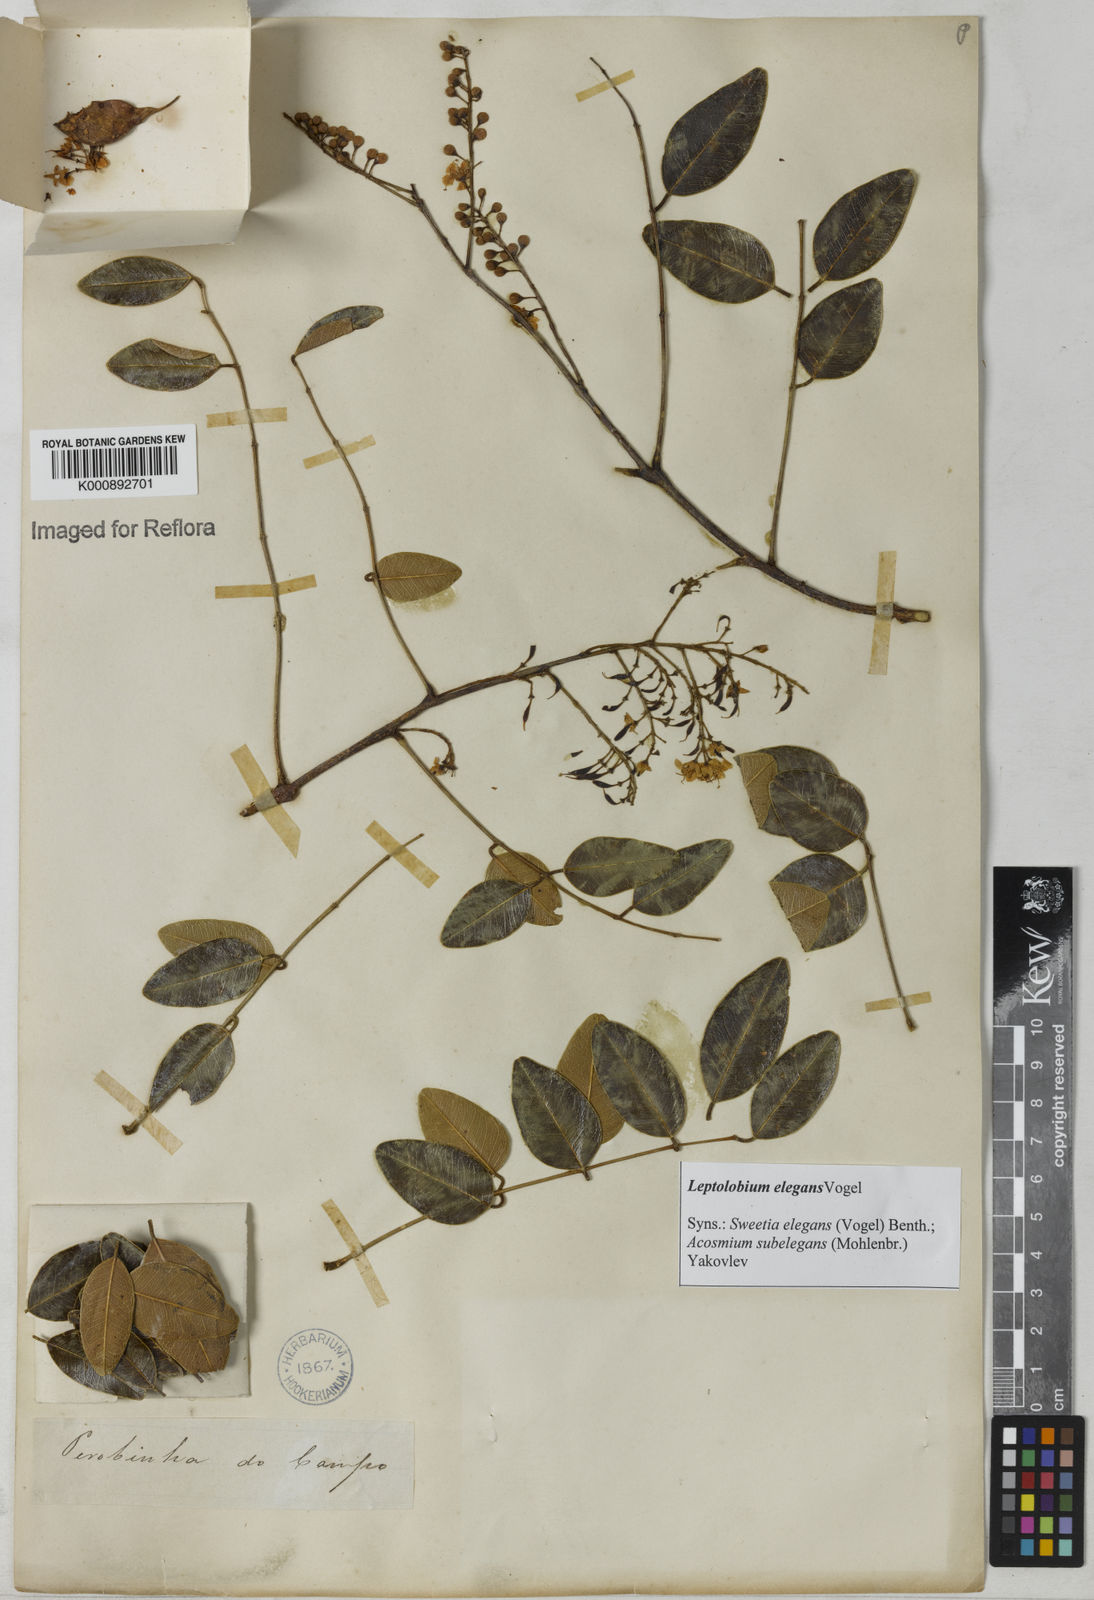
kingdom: Plantae
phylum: Tracheophyta
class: Magnoliopsida
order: Fabales
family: Fabaceae
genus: Leptolobium
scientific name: Leptolobium elegans
